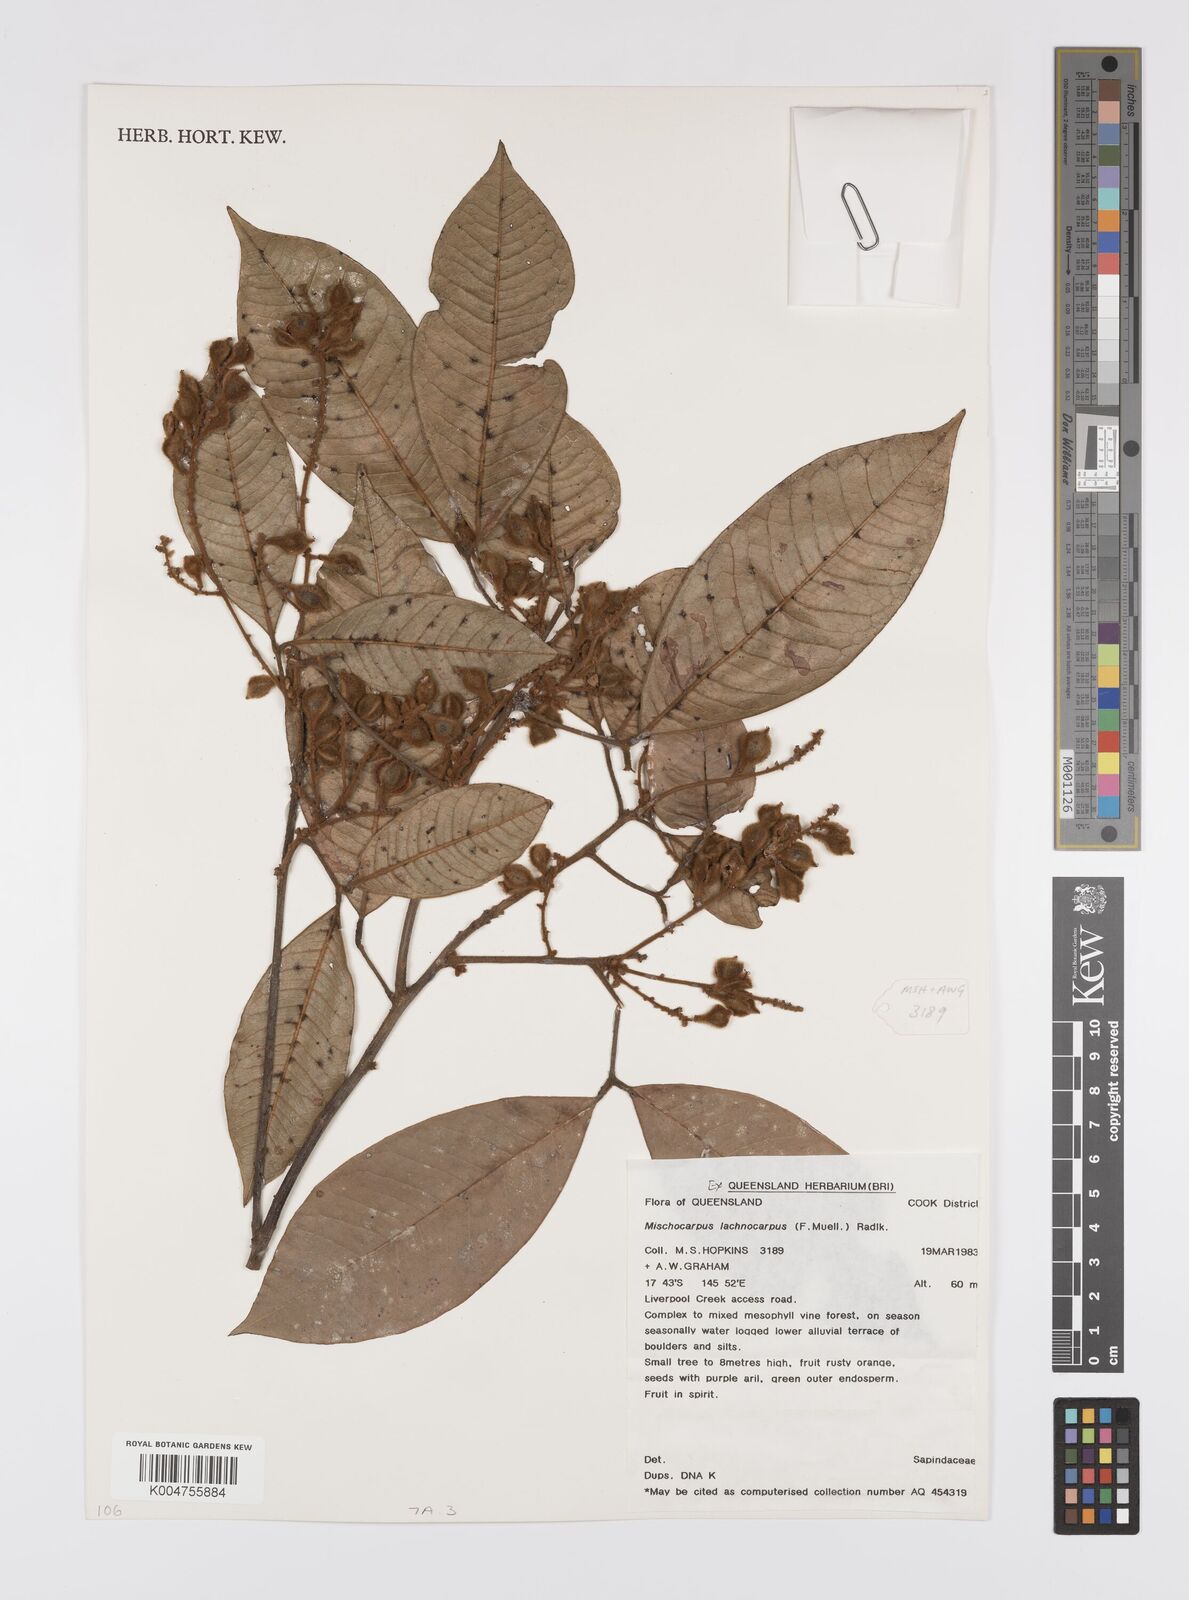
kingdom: Plantae
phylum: Tracheophyta
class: Magnoliopsida
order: Sapindales
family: Sapindaceae
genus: Mischocarpus
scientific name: Mischocarpus lachnocarpus
